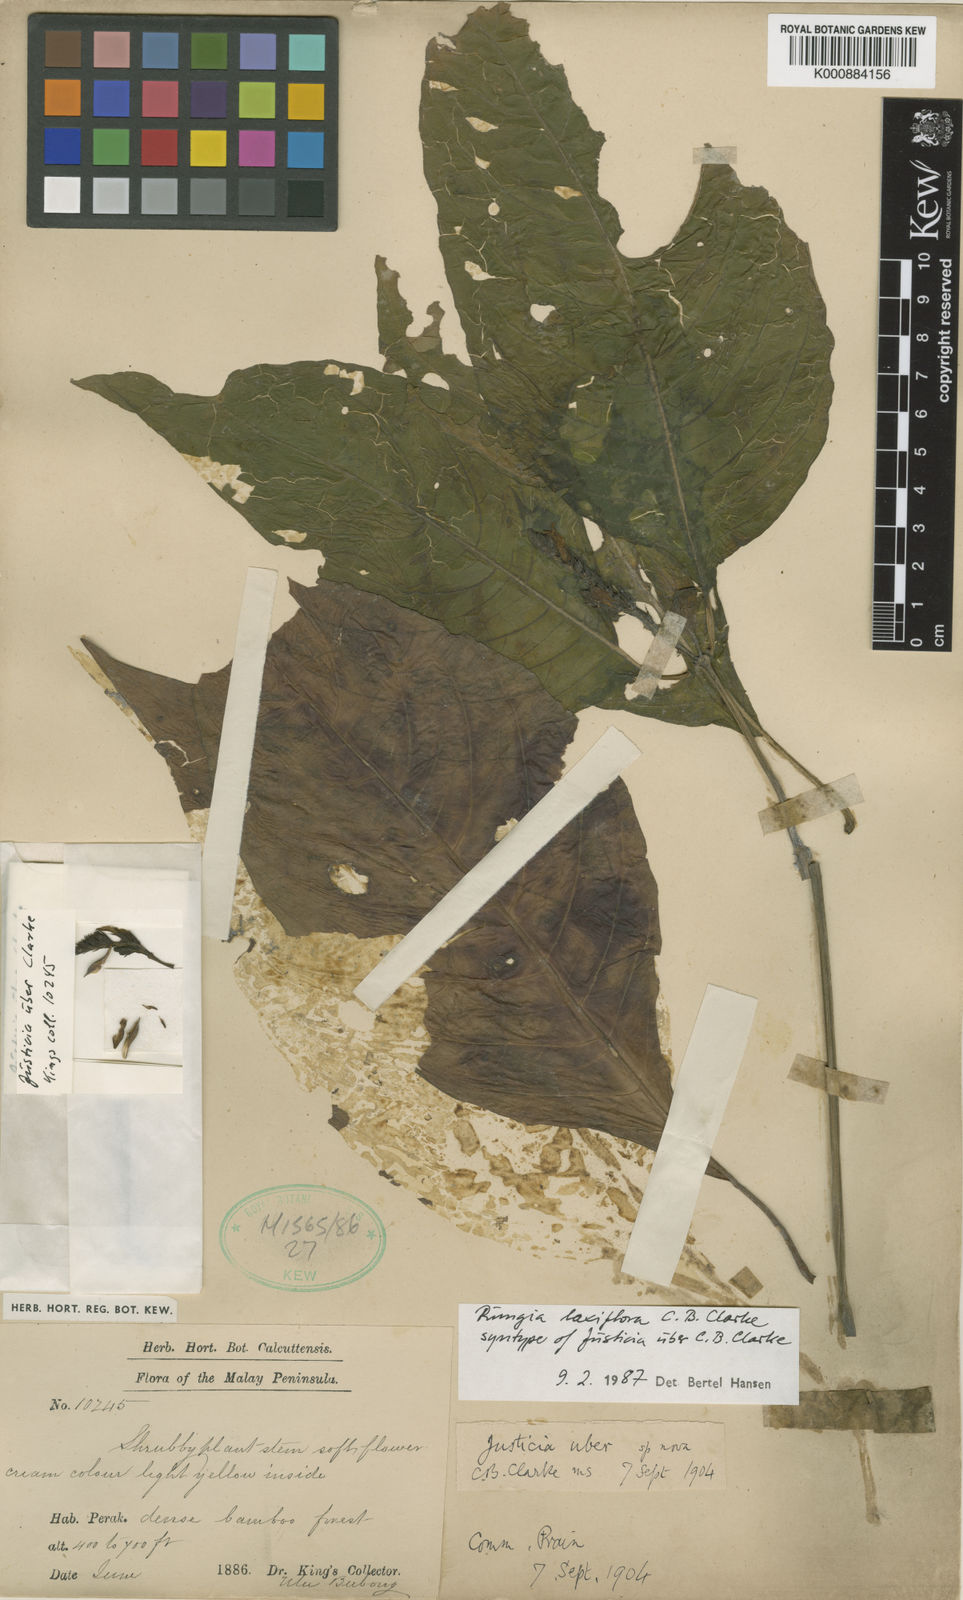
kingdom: Plantae
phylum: Tracheophyta
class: Magnoliopsida
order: Lamiales
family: Acanthaceae
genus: Haplanthus
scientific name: Haplanthus laxiflorus
